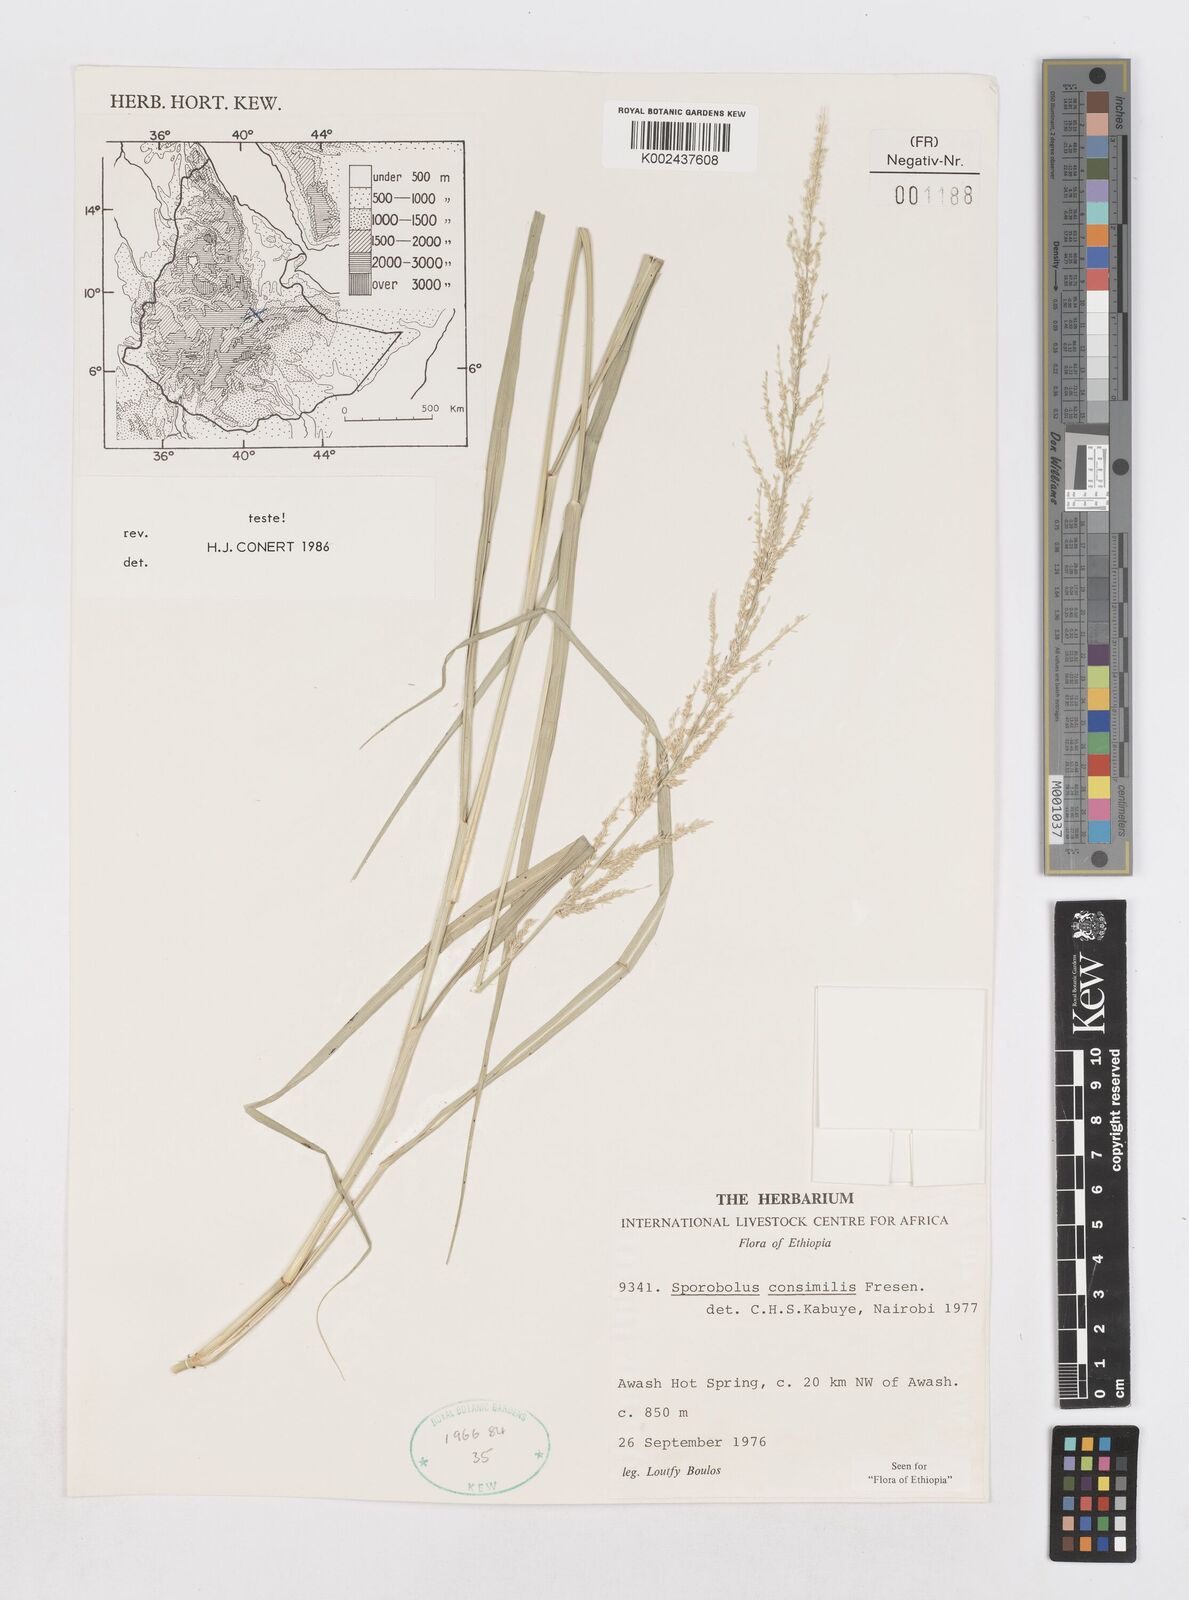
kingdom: Plantae
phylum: Tracheophyta
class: Liliopsida
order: Poales
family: Poaceae
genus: Sporobolus
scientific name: Sporobolus consimilis
